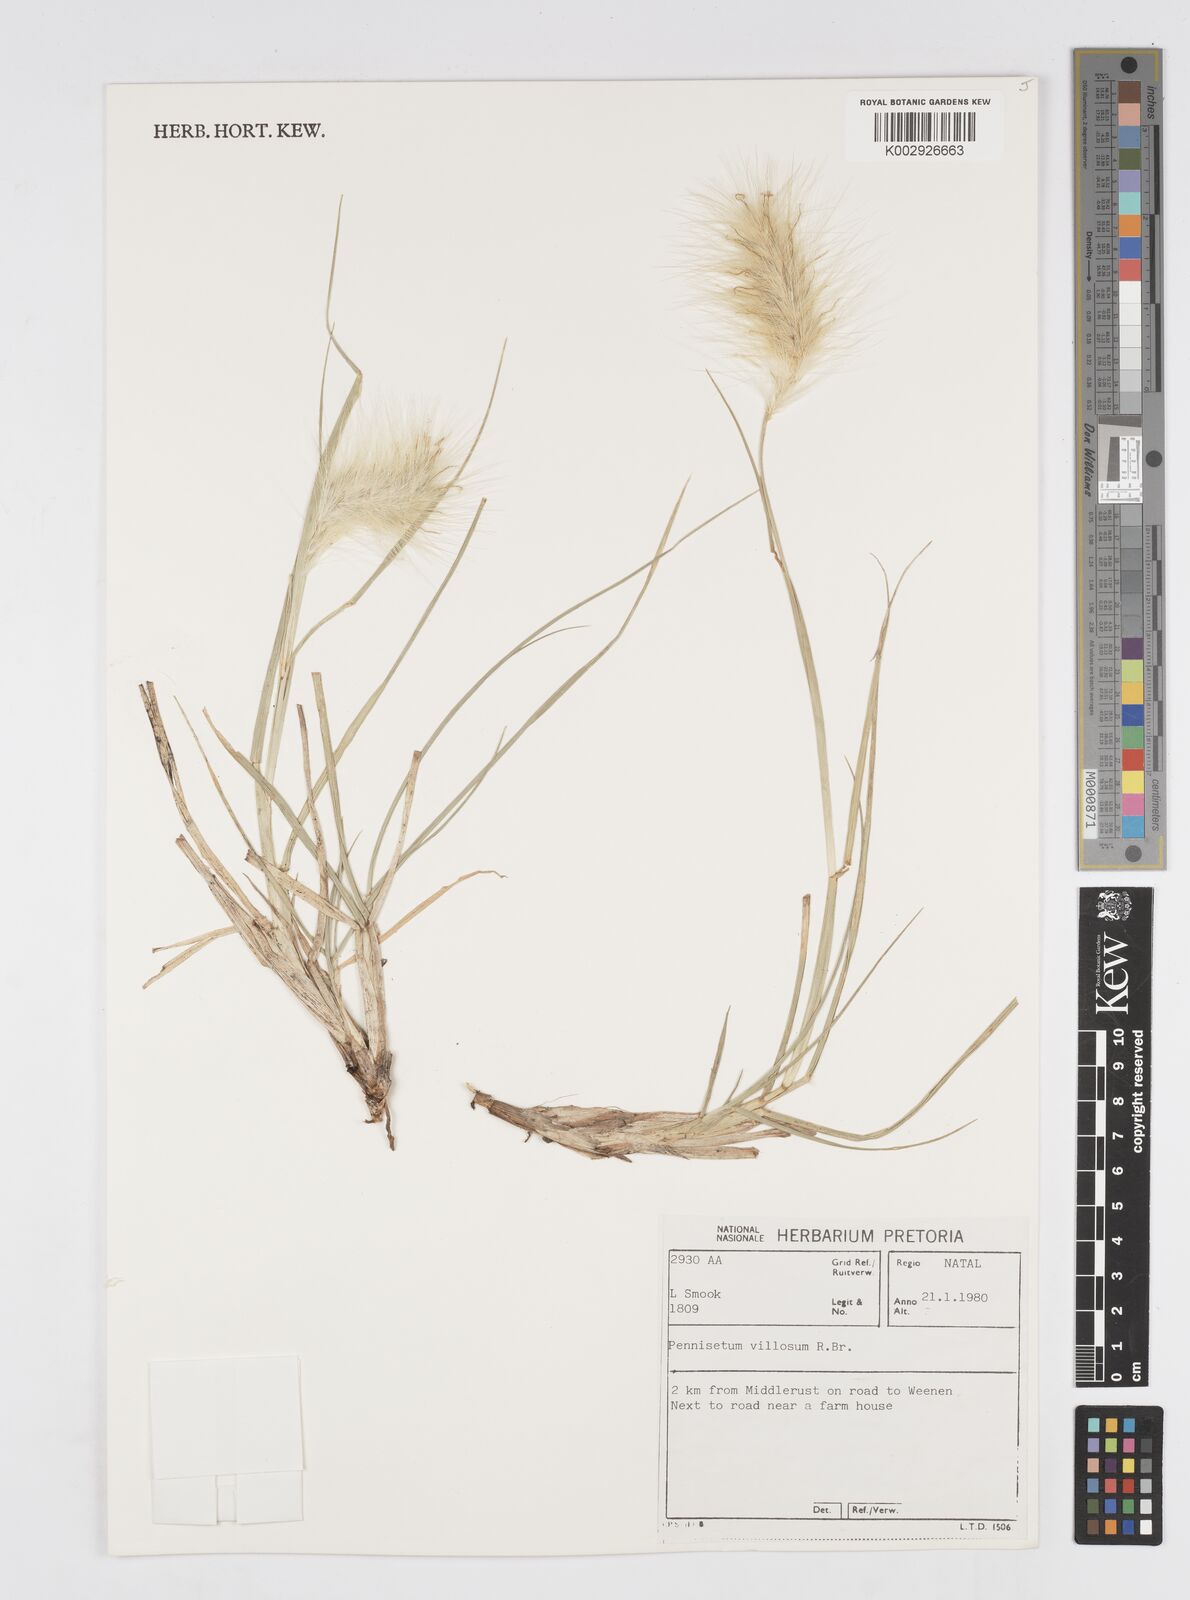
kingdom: Plantae
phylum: Tracheophyta
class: Liliopsida
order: Poales
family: Poaceae
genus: Cenchrus
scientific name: Cenchrus longisetus
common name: Feathertop
